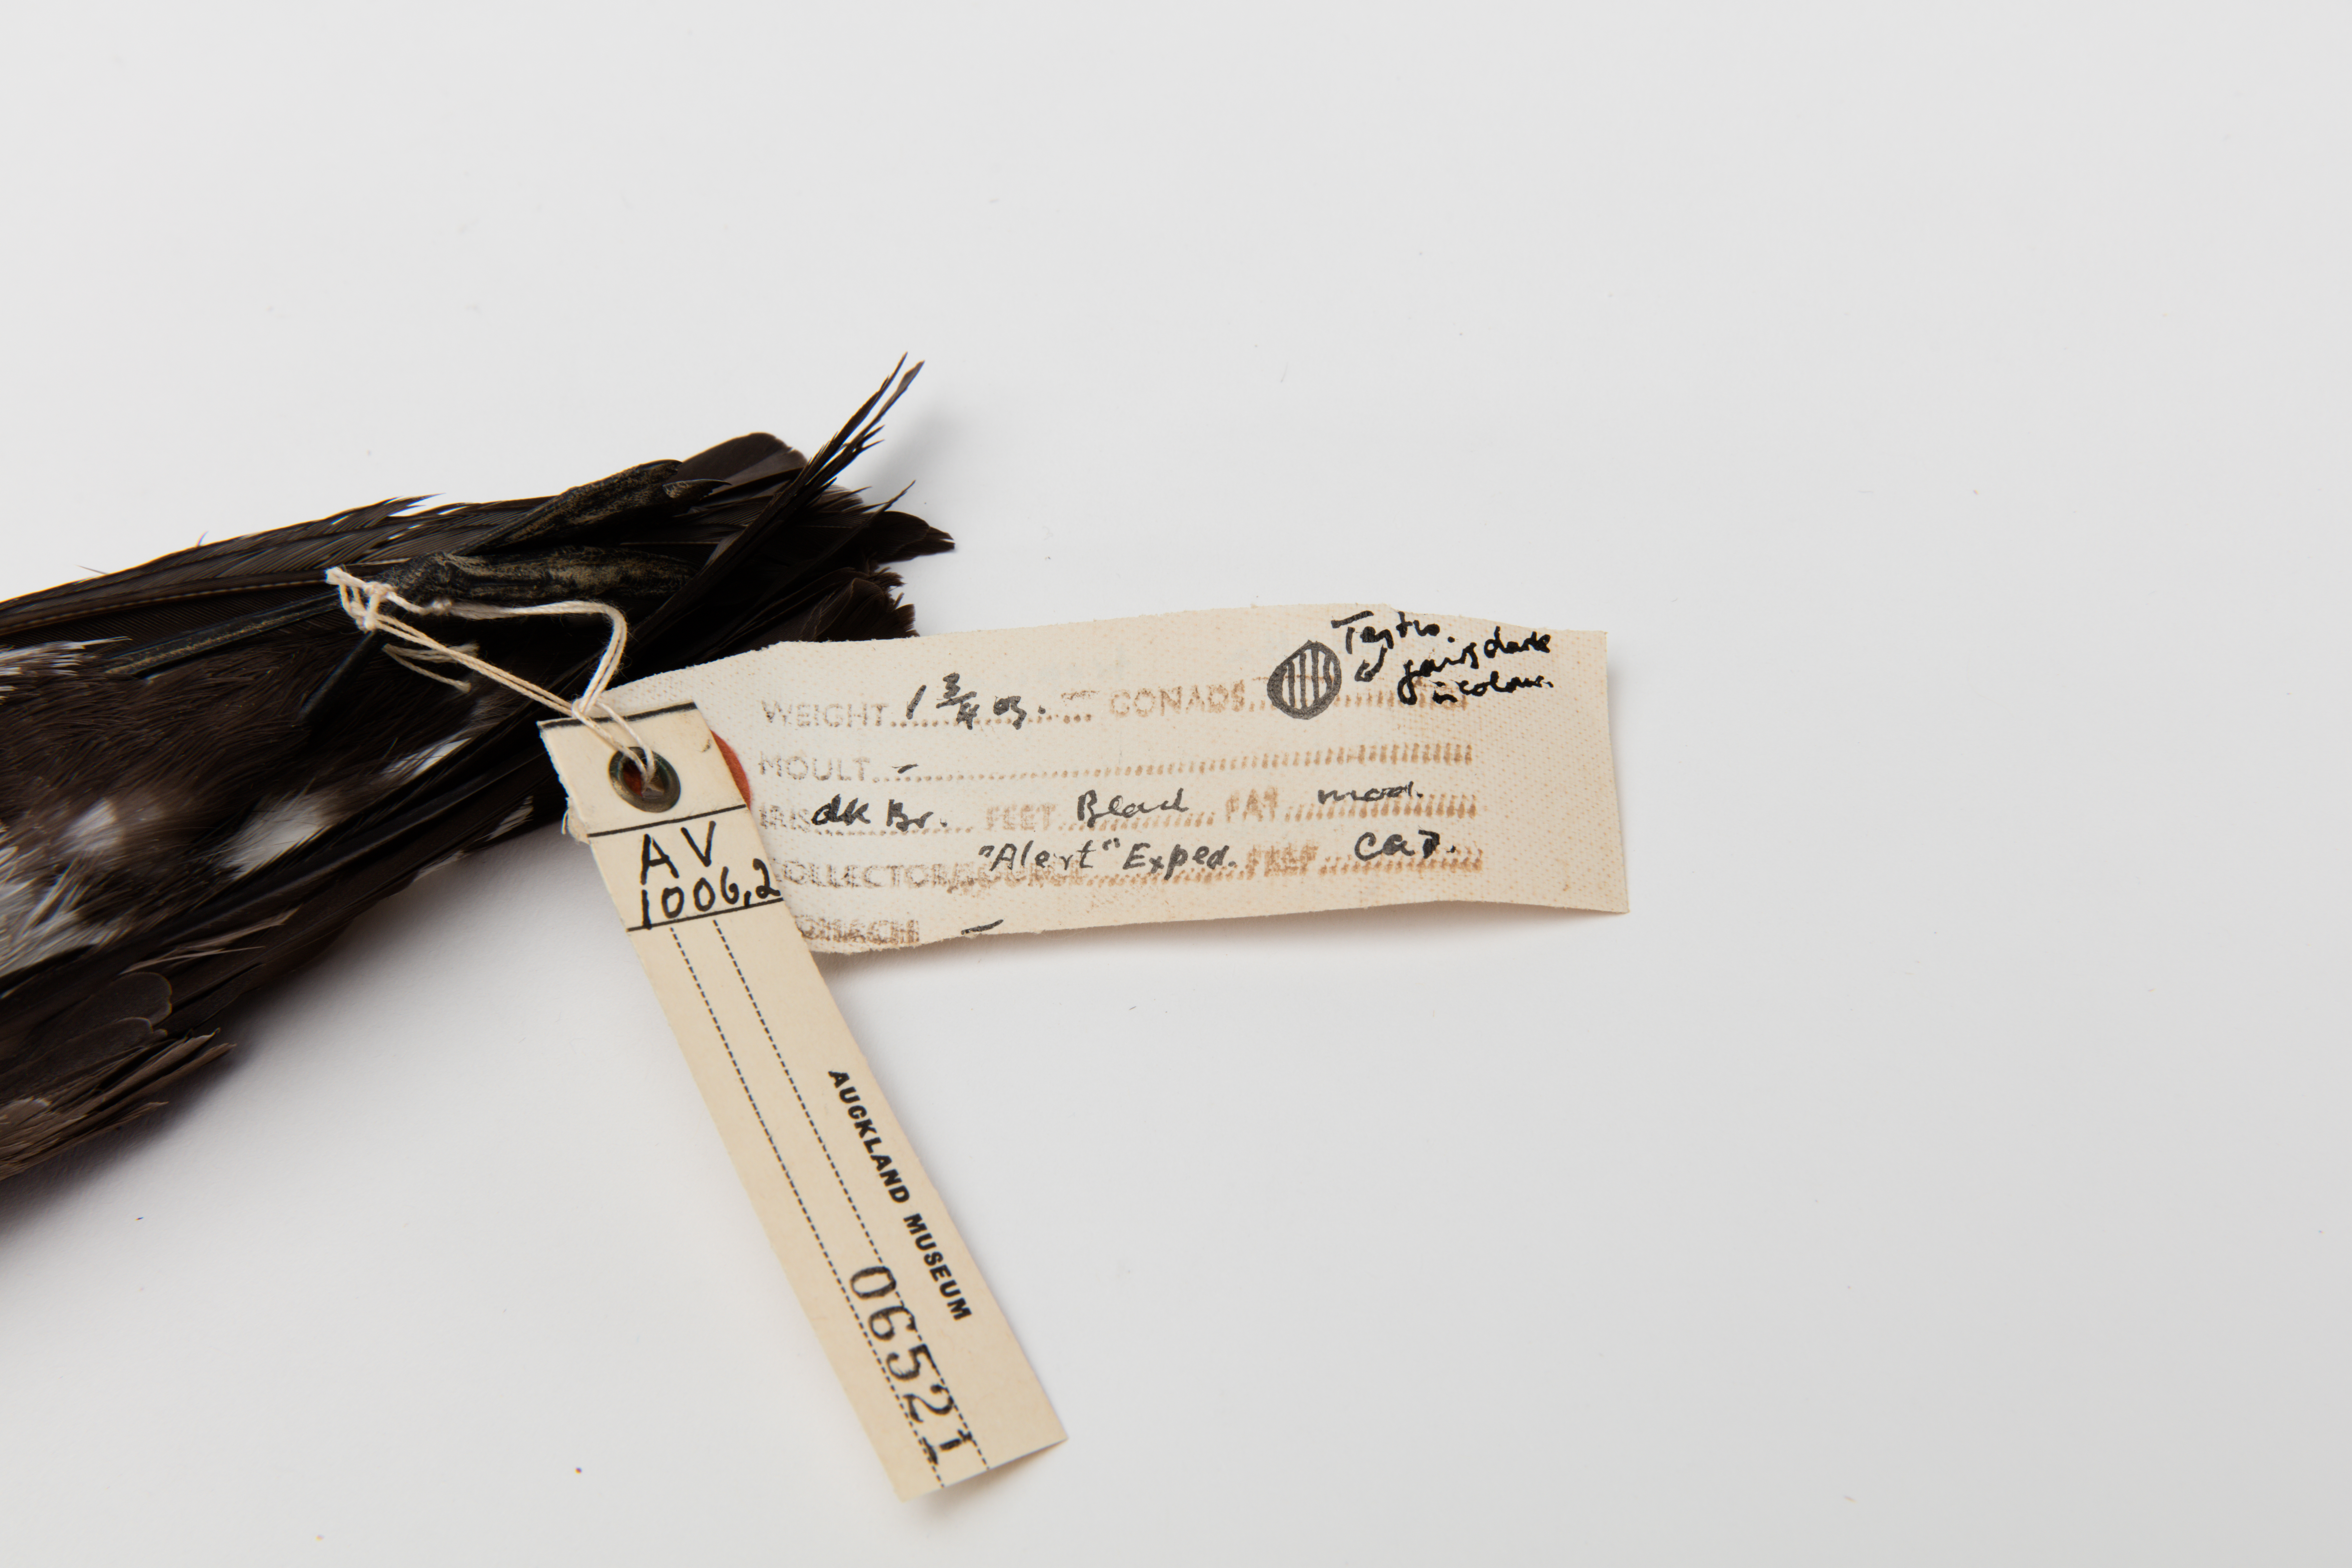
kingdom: Animalia
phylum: Chordata
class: Aves
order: Procellariiformes
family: Hydrobatidae
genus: Fregetta
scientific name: Fregetta tropica
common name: Black-bellied storm-petrel
